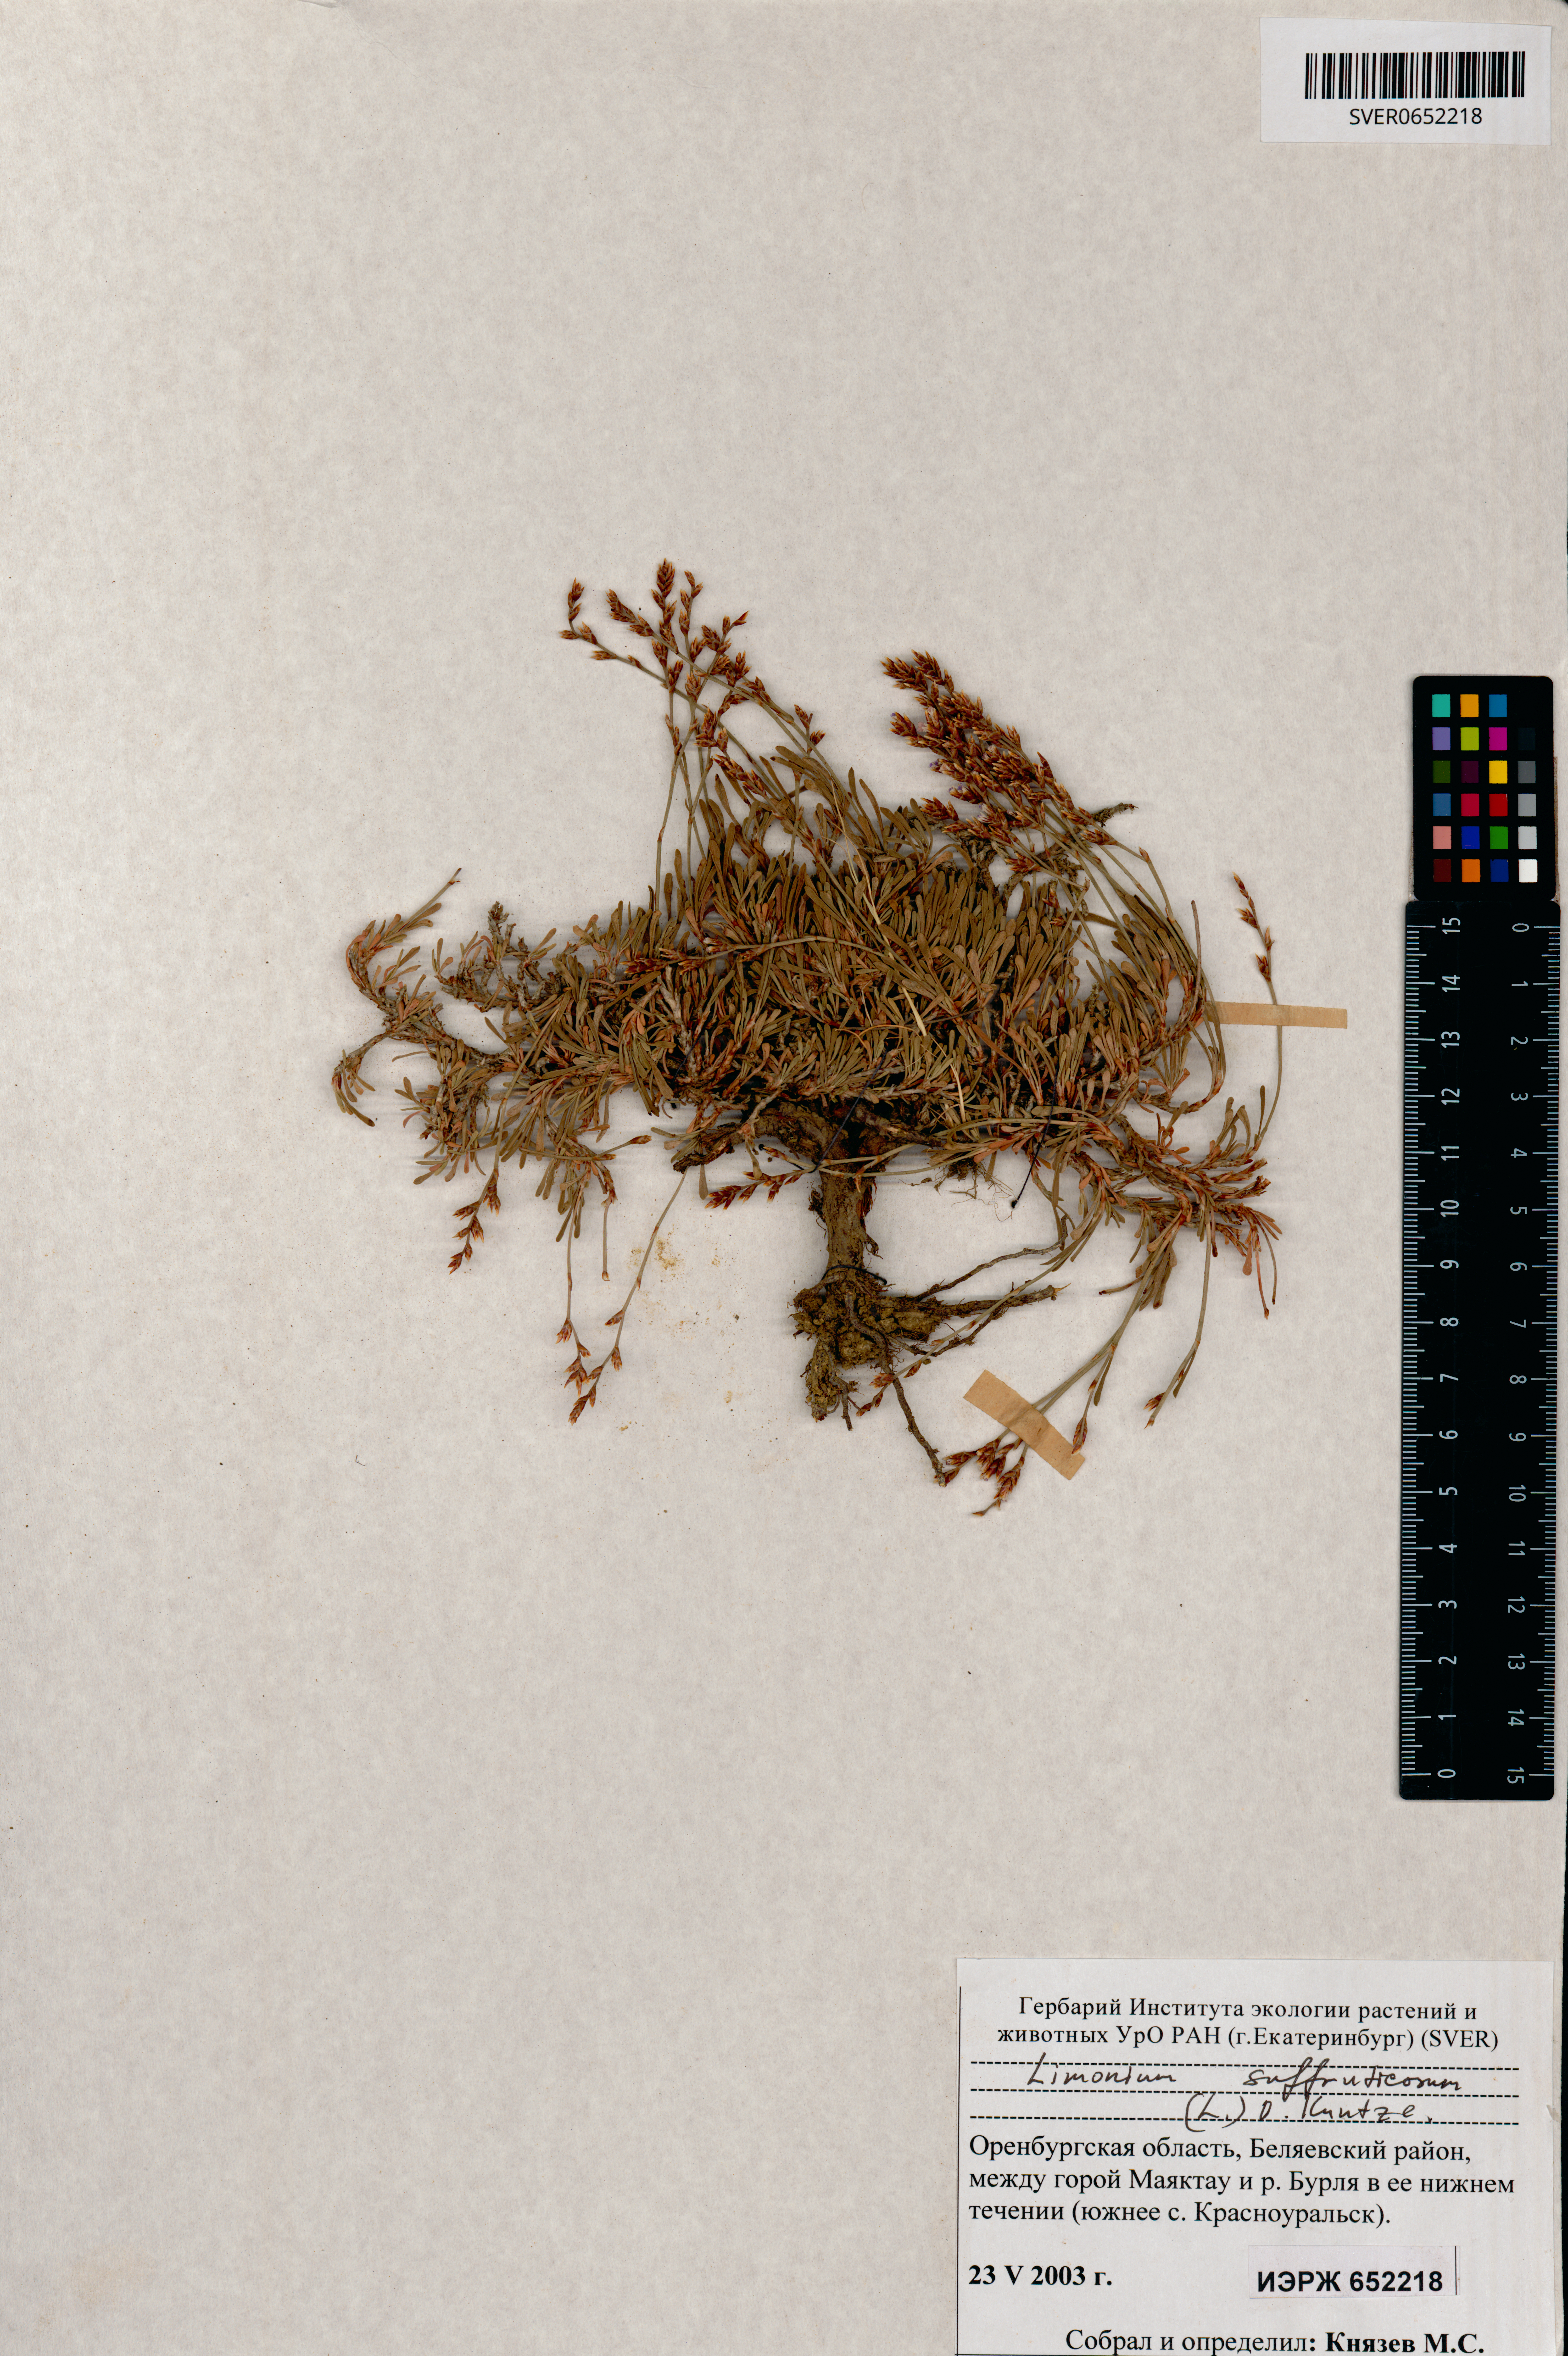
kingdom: Plantae
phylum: Tracheophyta
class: Magnoliopsida
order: Caryophyllales
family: Plumbaginaceae
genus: Limonium
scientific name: Limonium suffruticosum
